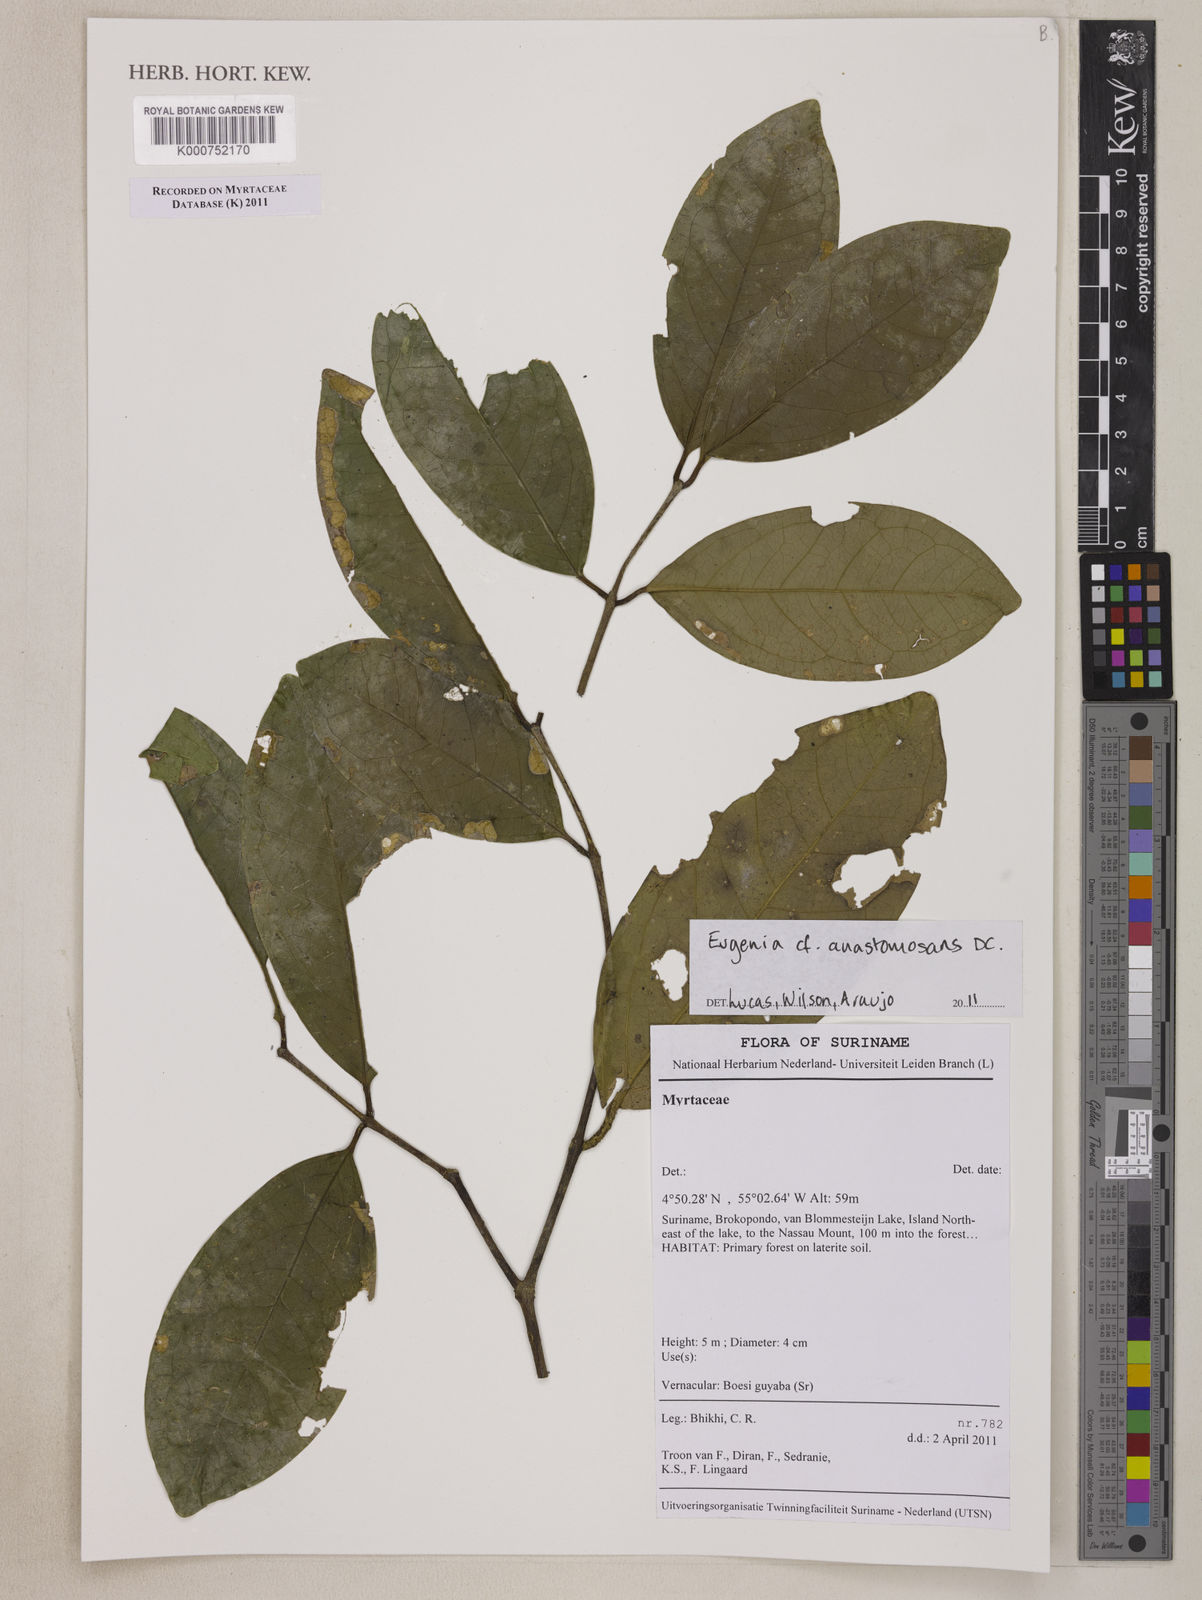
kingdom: Plantae
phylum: Tracheophyta
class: Magnoliopsida
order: Myrtales
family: Myrtaceae
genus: Eugenia
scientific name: Eugenia anastomosans
